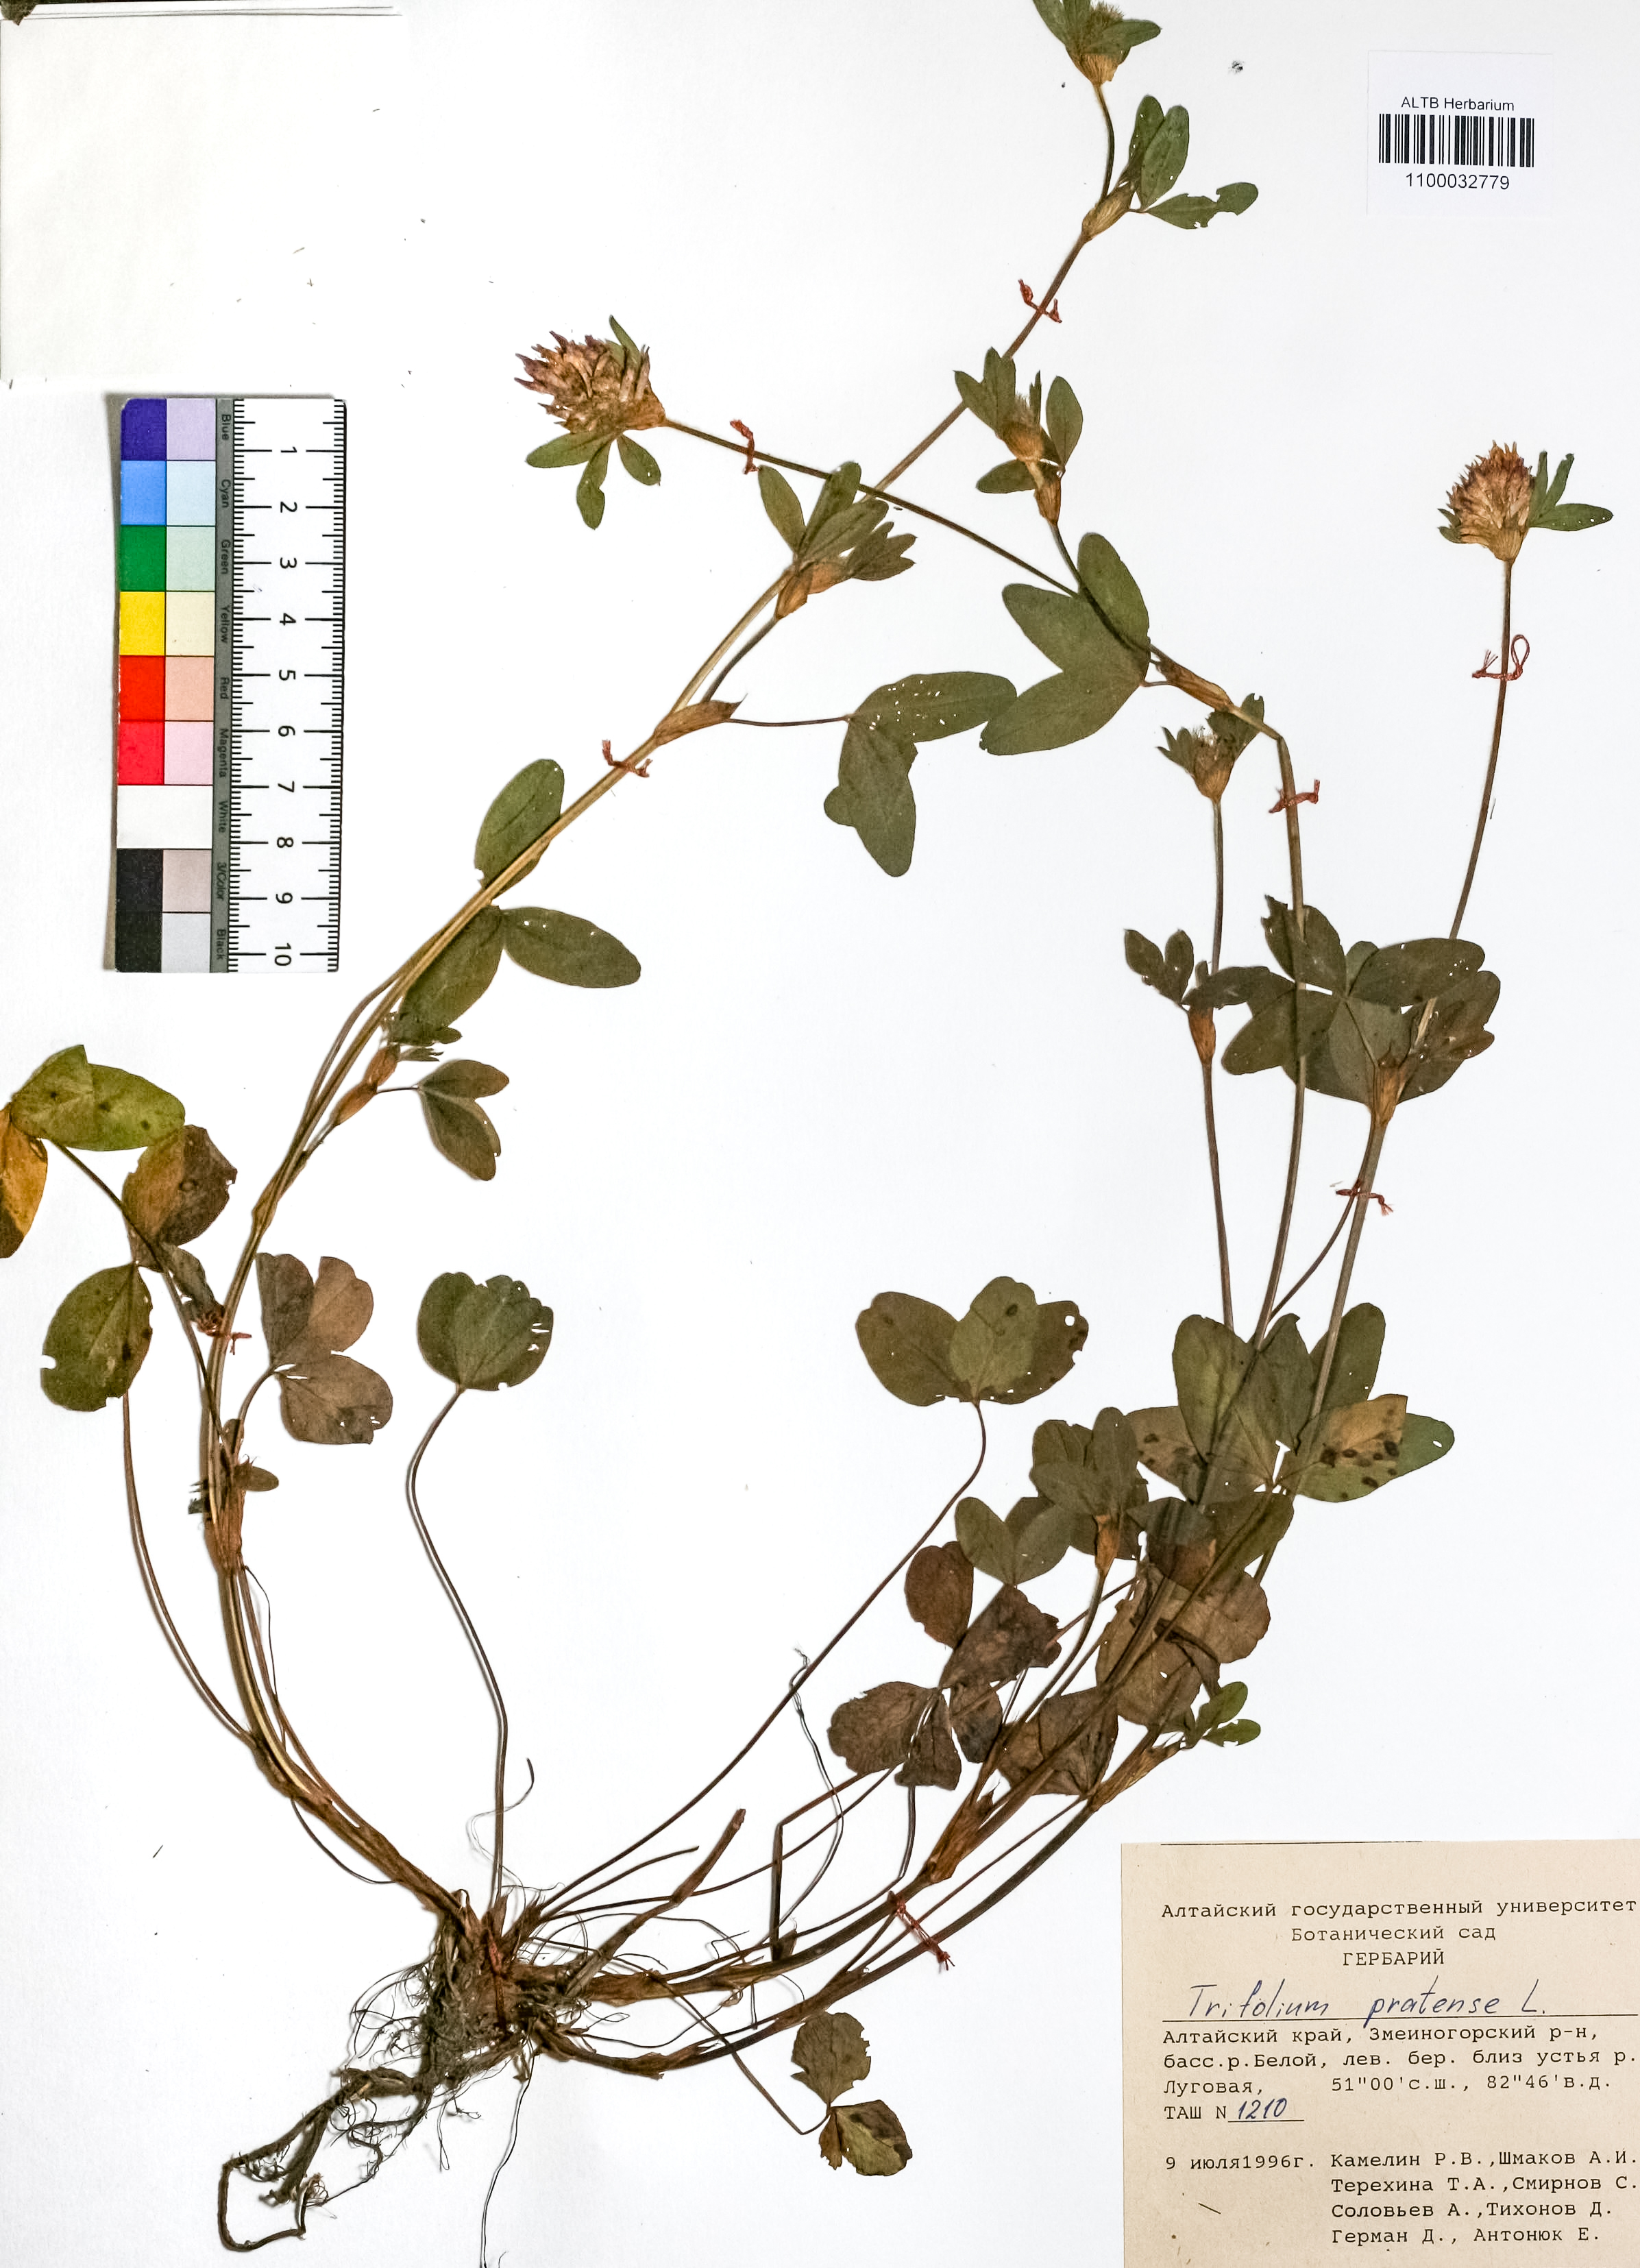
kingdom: Plantae
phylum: Tracheophyta
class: Magnoliopsida
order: Fabales
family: Fabaceae
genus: Trifolium
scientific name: Trifolium pratense
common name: Red clover
